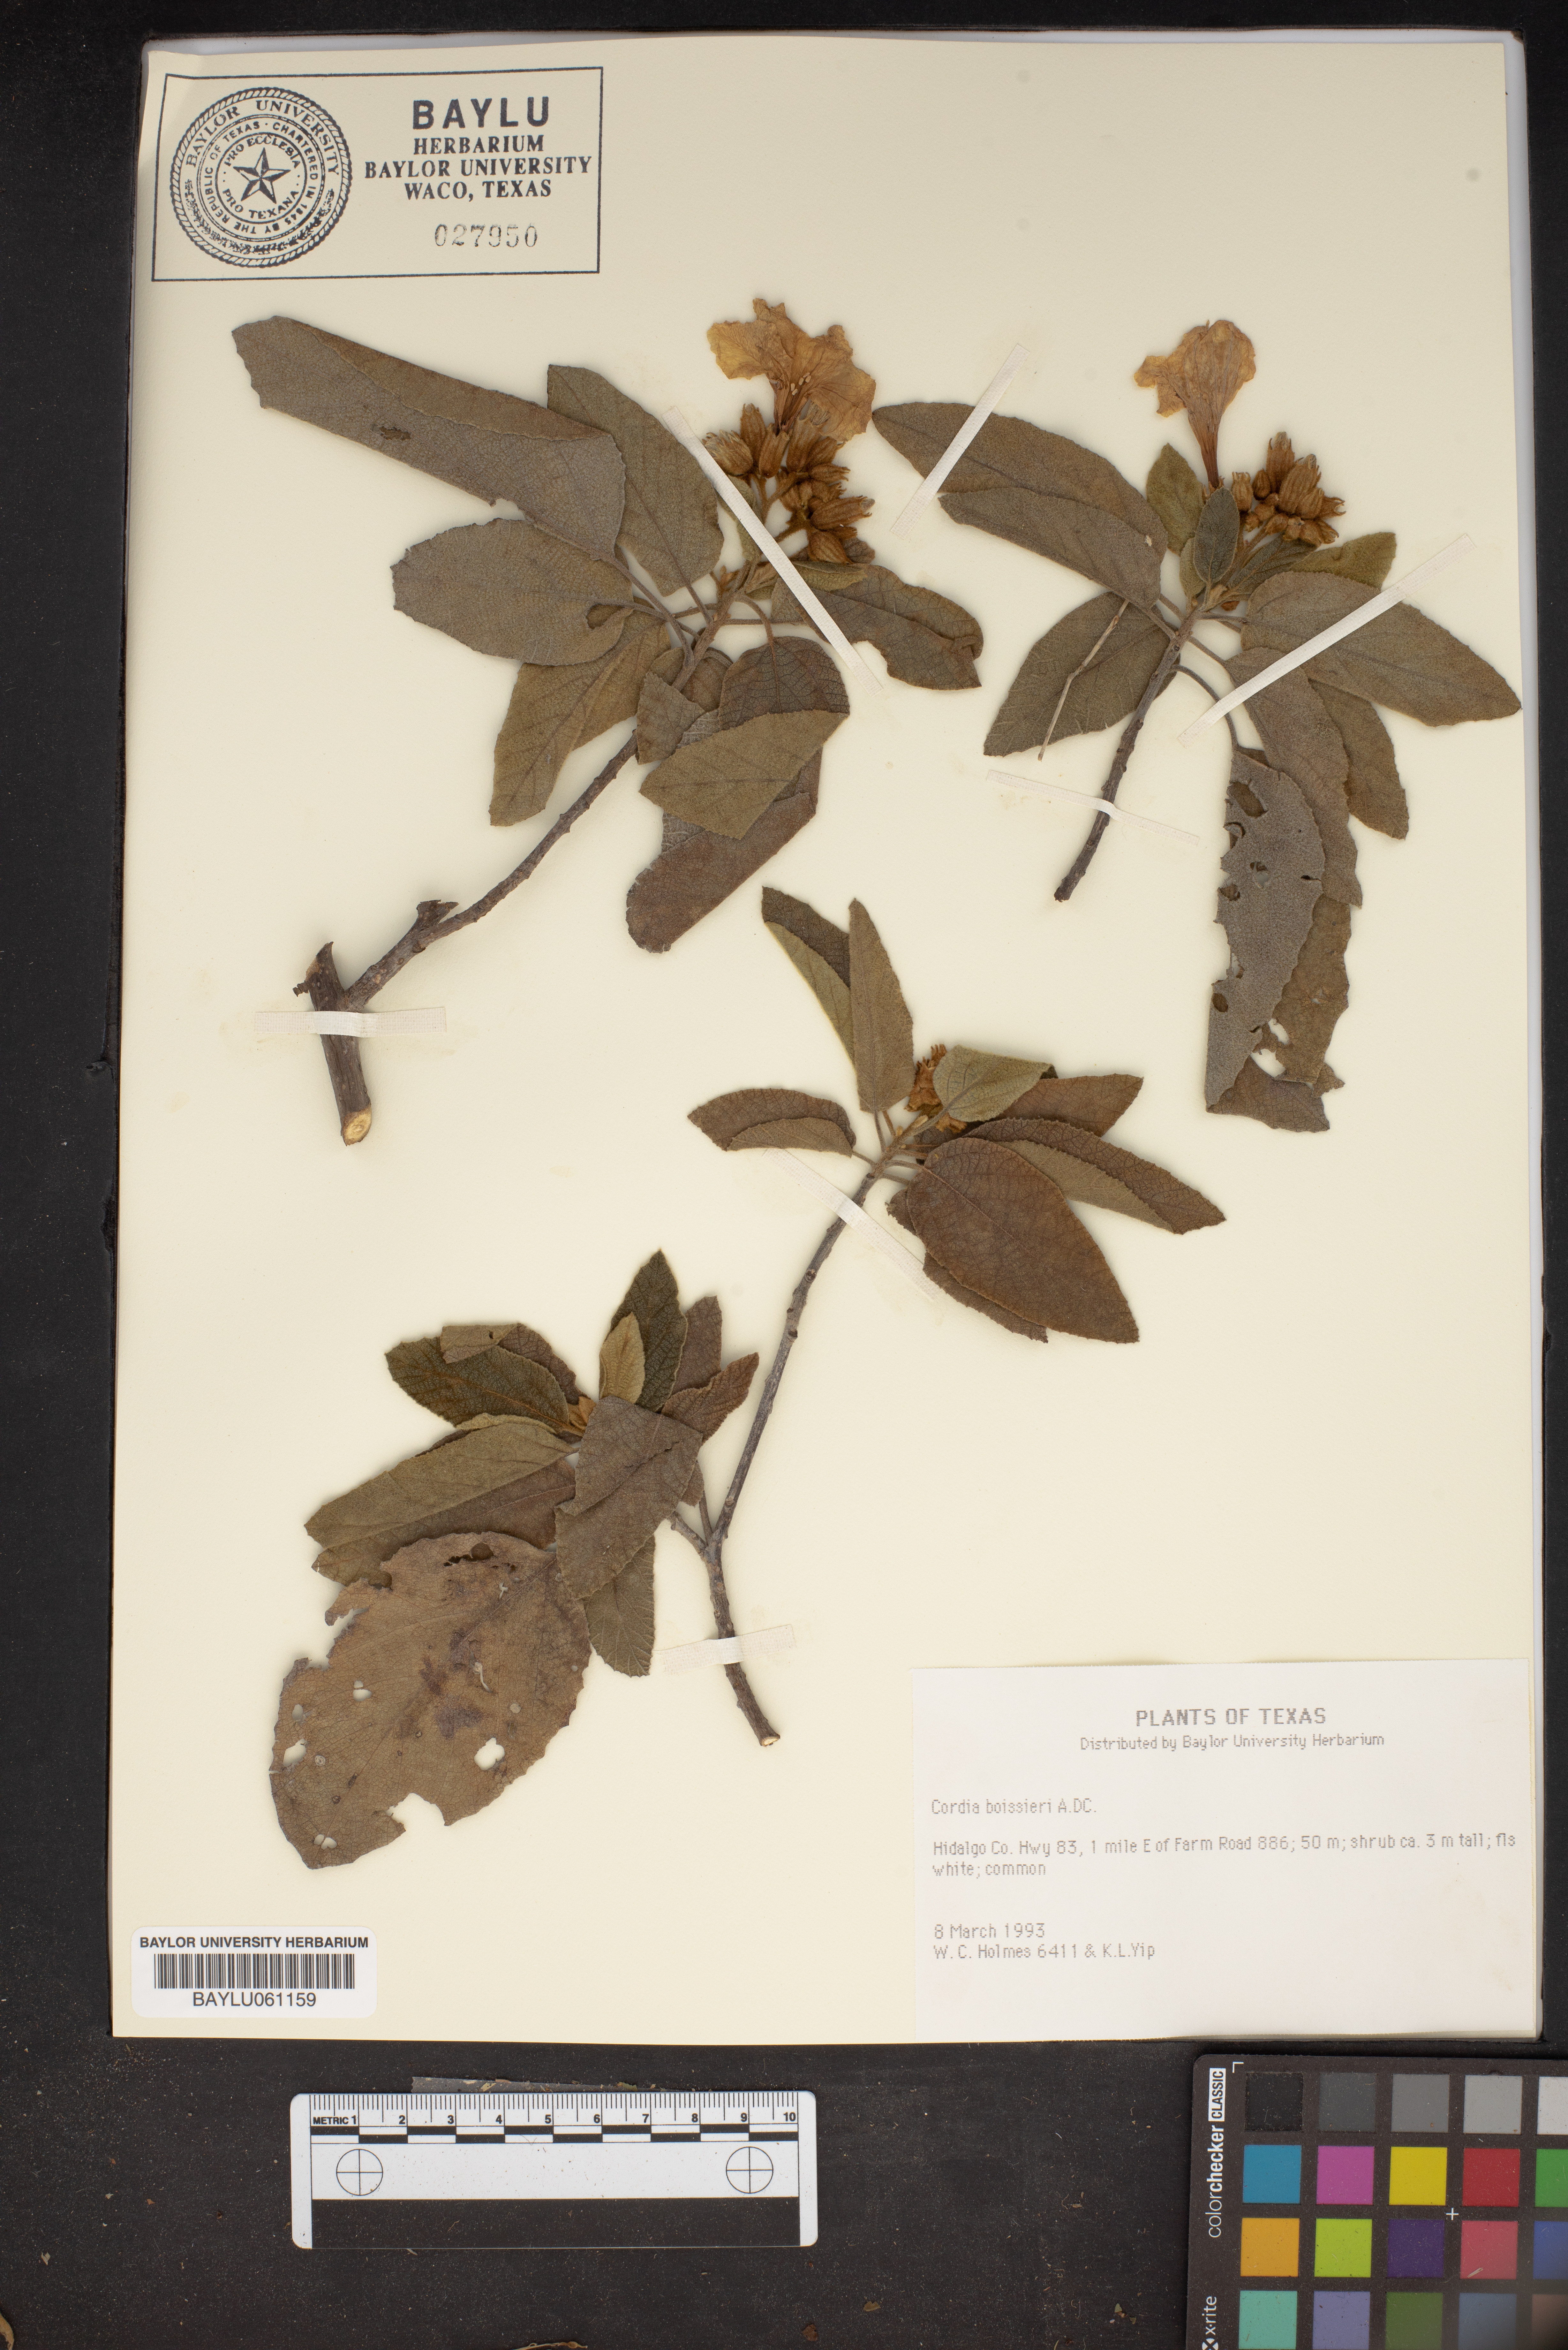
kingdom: Plantae
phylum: Tracheophyta
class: Magnoliopsida
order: Boraginales
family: Cordiaceae
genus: Cordia
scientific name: Cordia boissieri
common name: Mexican-olive
